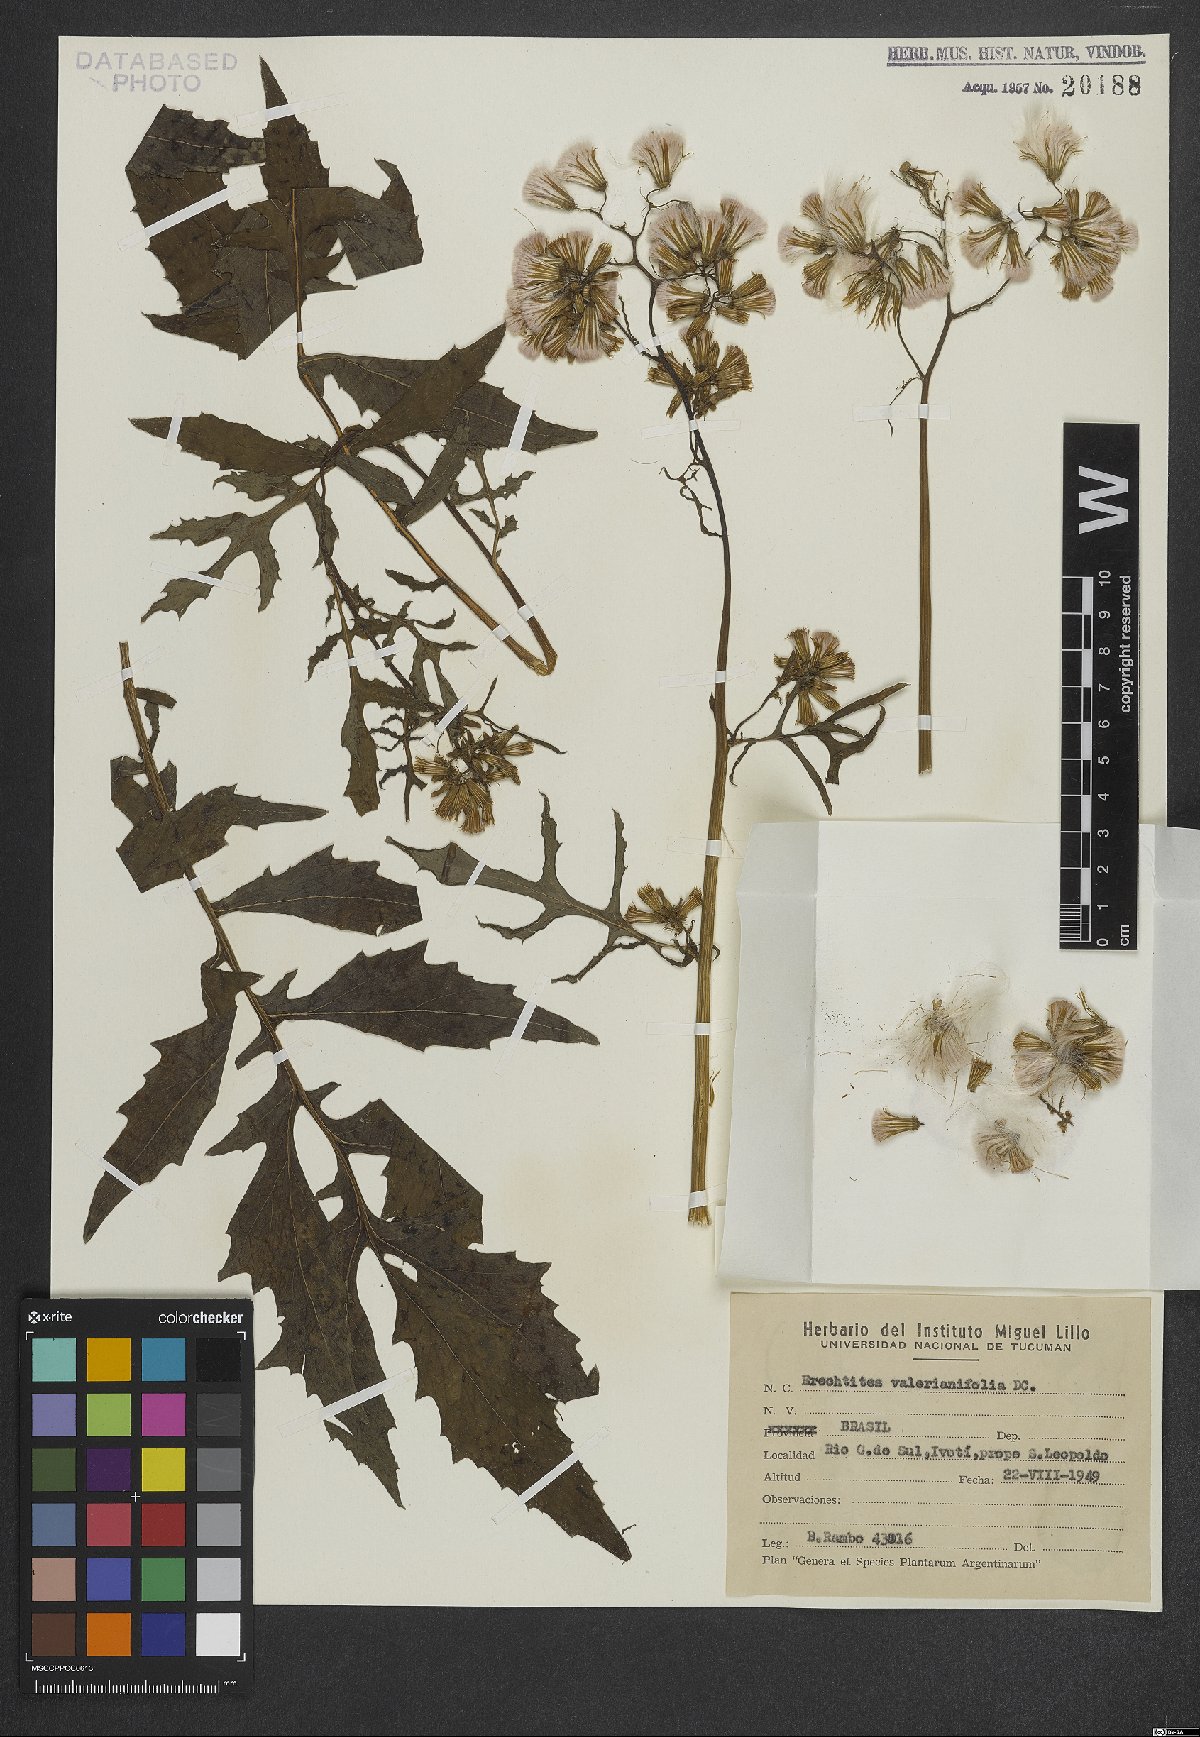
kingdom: Plantae
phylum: Tracheophyta
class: Magnoliopsida
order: Asterales
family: Asteraceae
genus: Erechtites
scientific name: Erechtites valerianifolius
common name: Tropical burnweed
